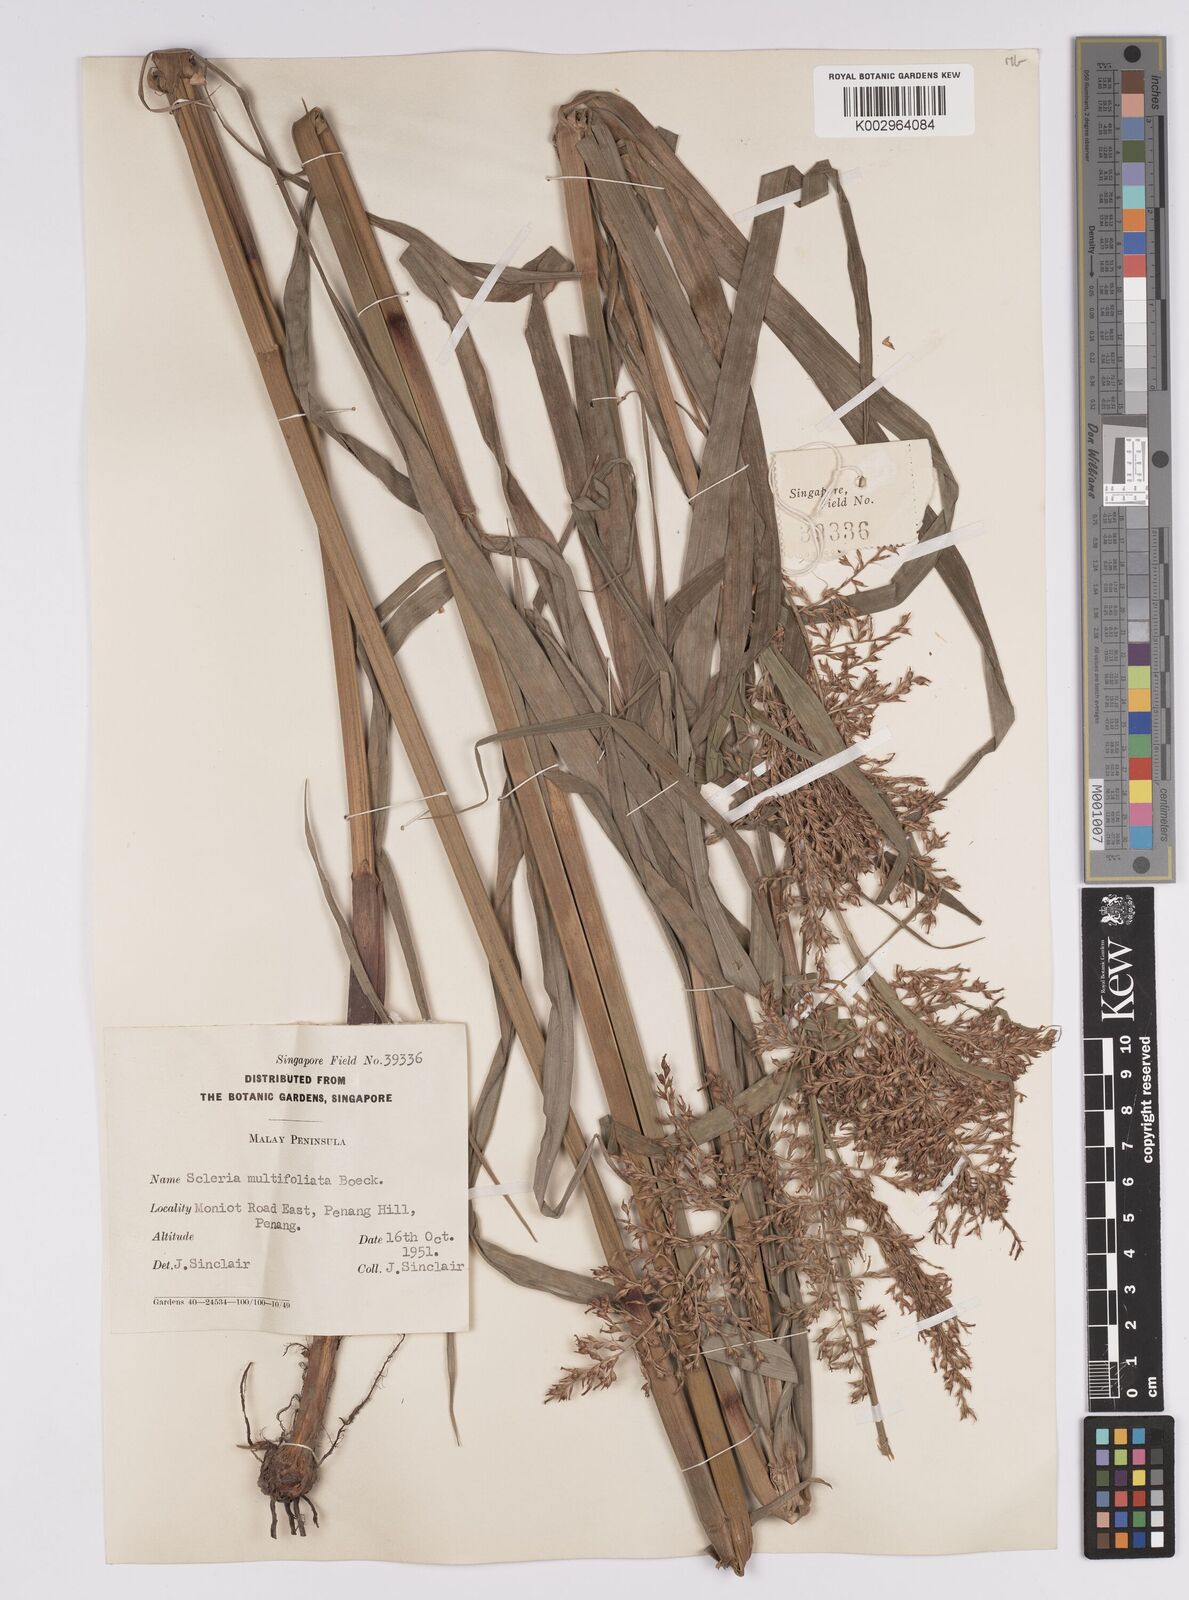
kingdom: Plantae
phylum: Tracheophyta
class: Liliopsida
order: Poales
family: Cyperaceae
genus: Scleria
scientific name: Scleria purpurascens
